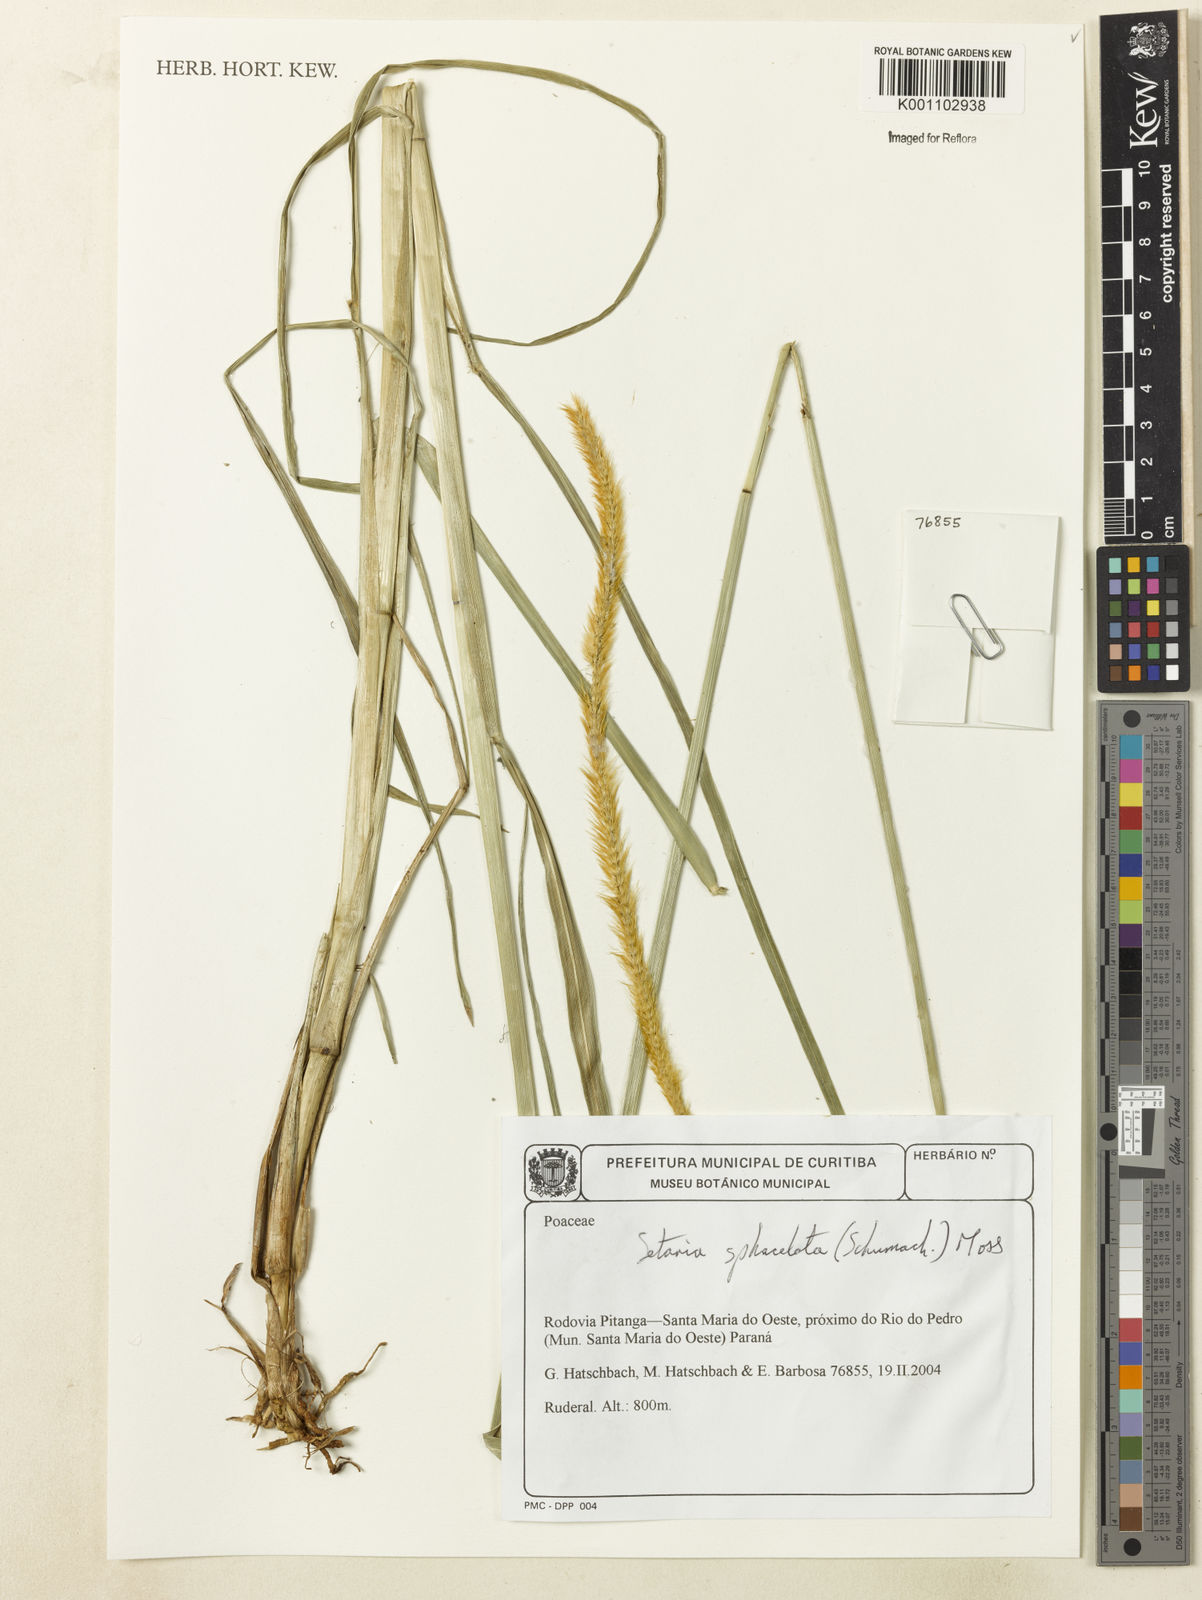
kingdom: Plantae
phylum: Tracheophyta
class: Liliopsida
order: Poales
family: Poaceae
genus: Setaria
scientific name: Setaria sphacelata
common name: African bristlegrass
